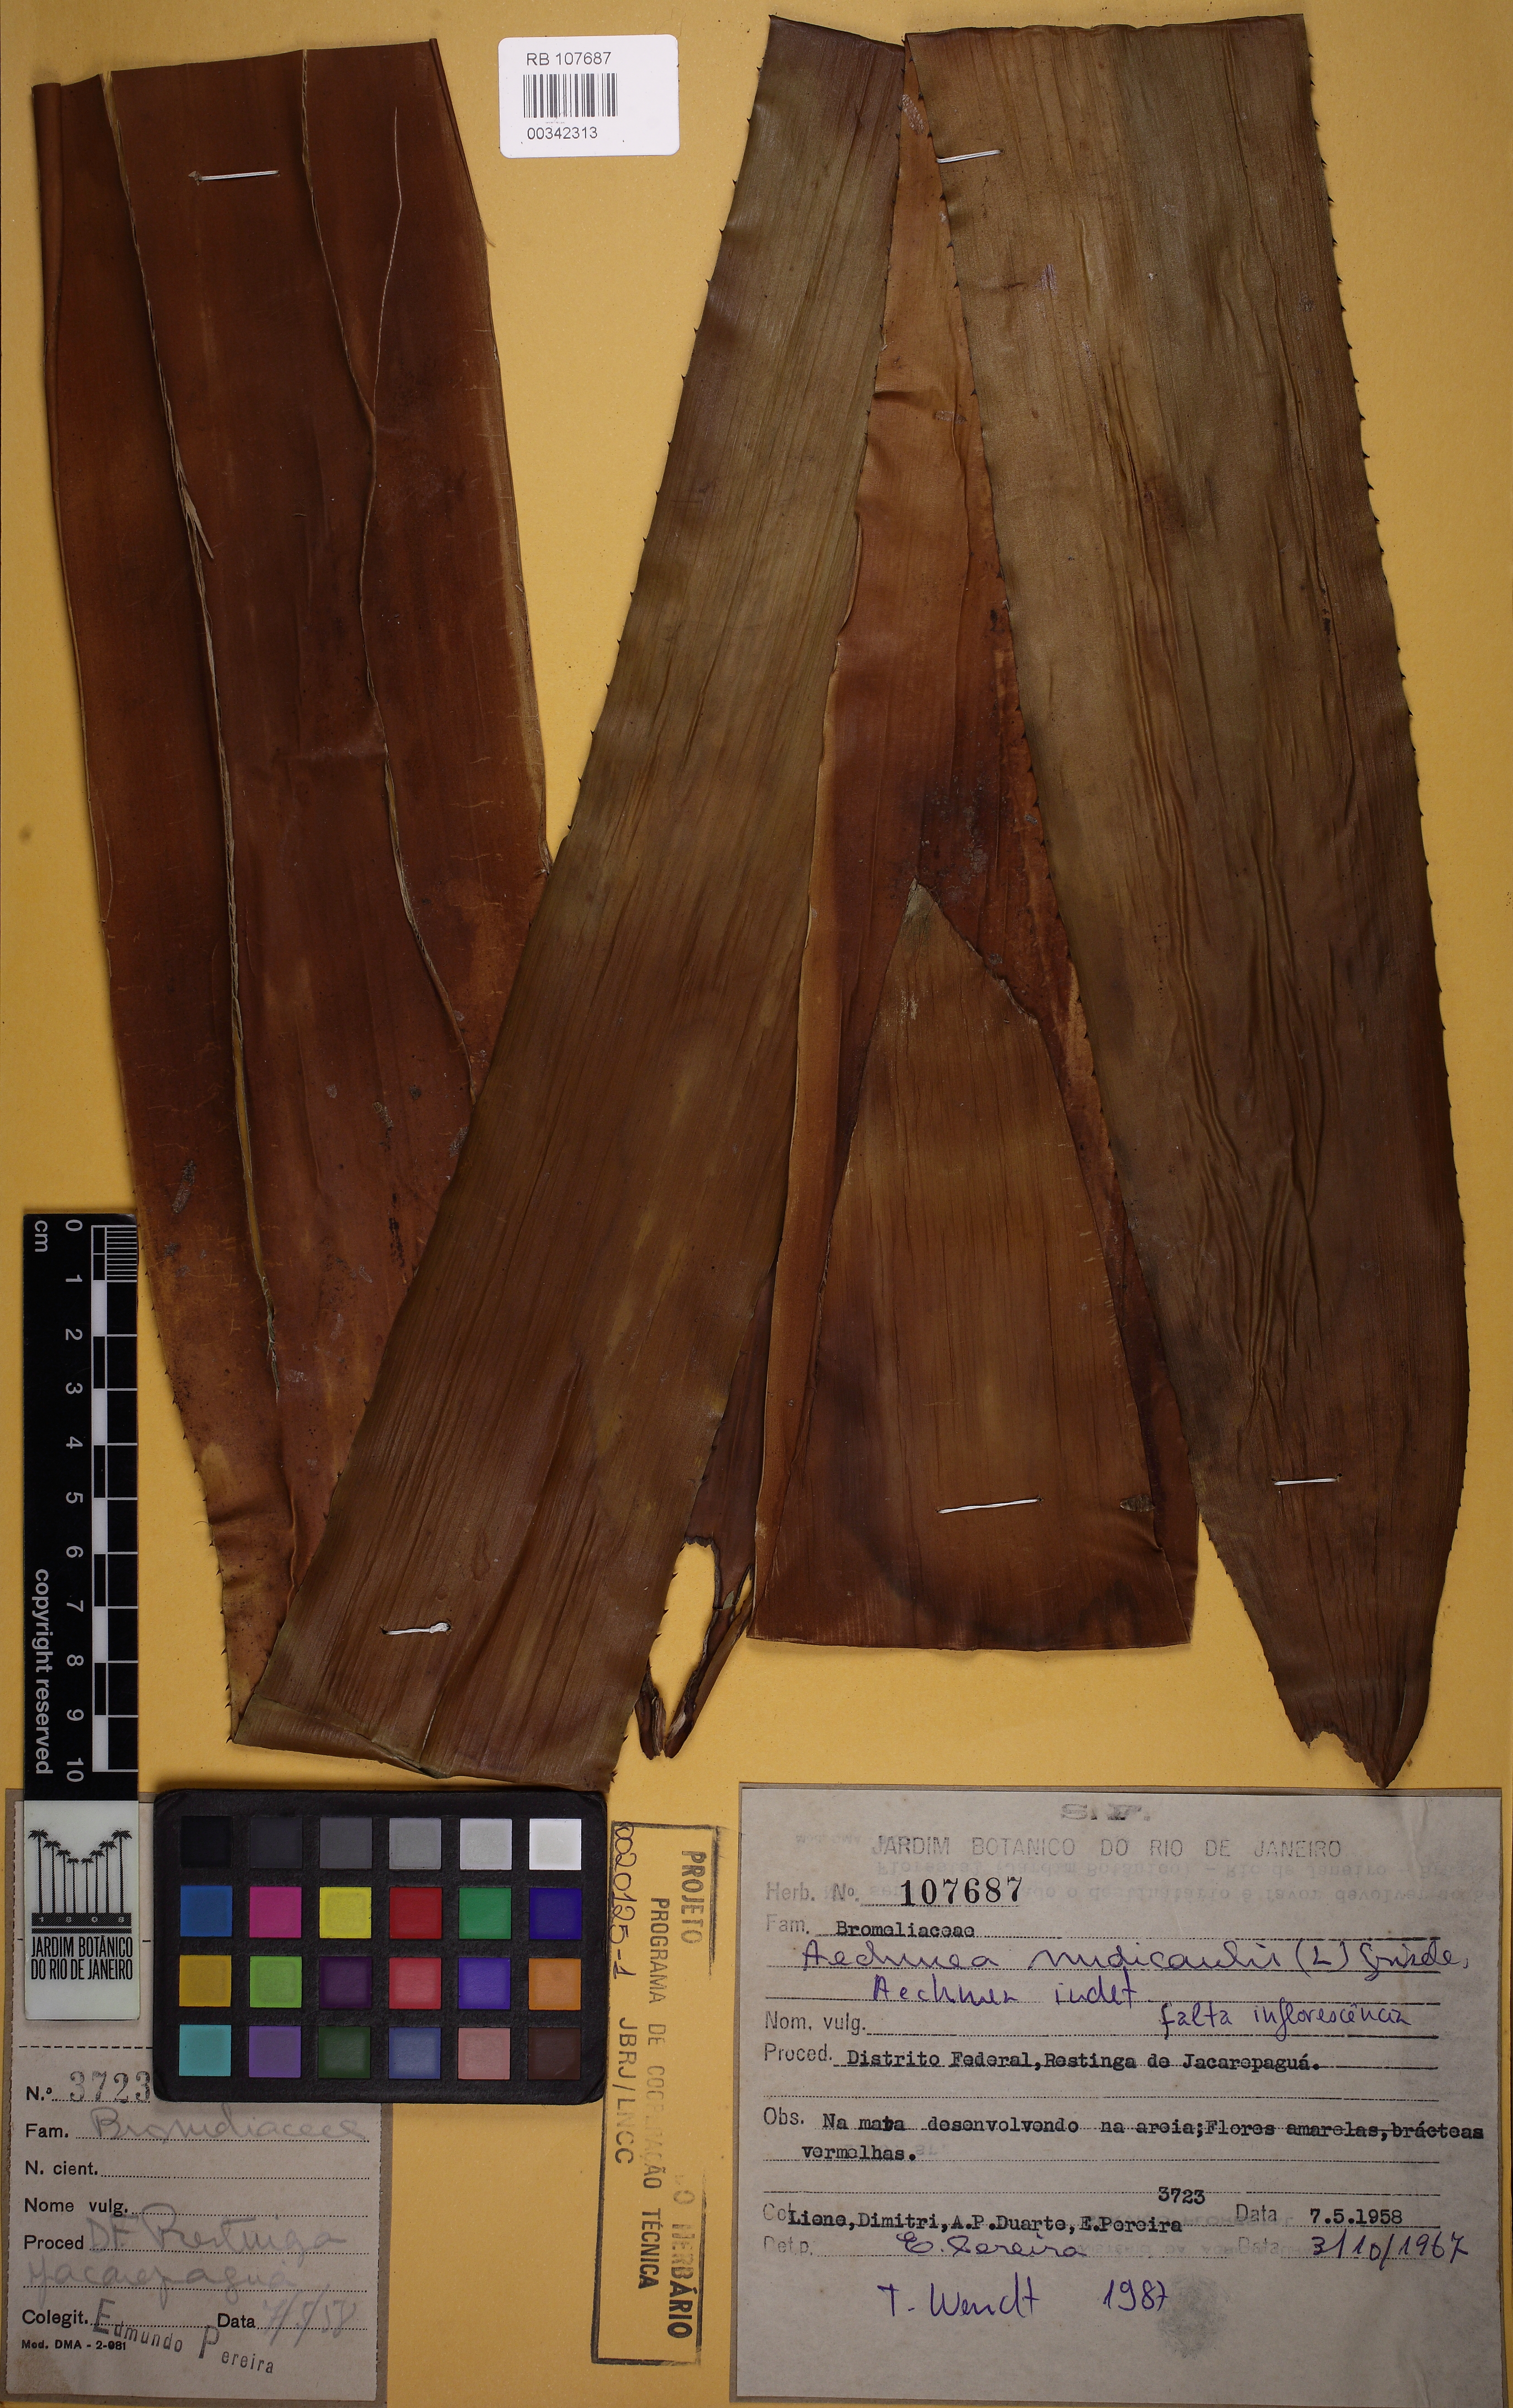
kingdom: Plantae
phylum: Tracheophyta
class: Liliopsida
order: Poales
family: Bromeliaceae
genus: Aechmea
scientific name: Aechmea nudicaulis
